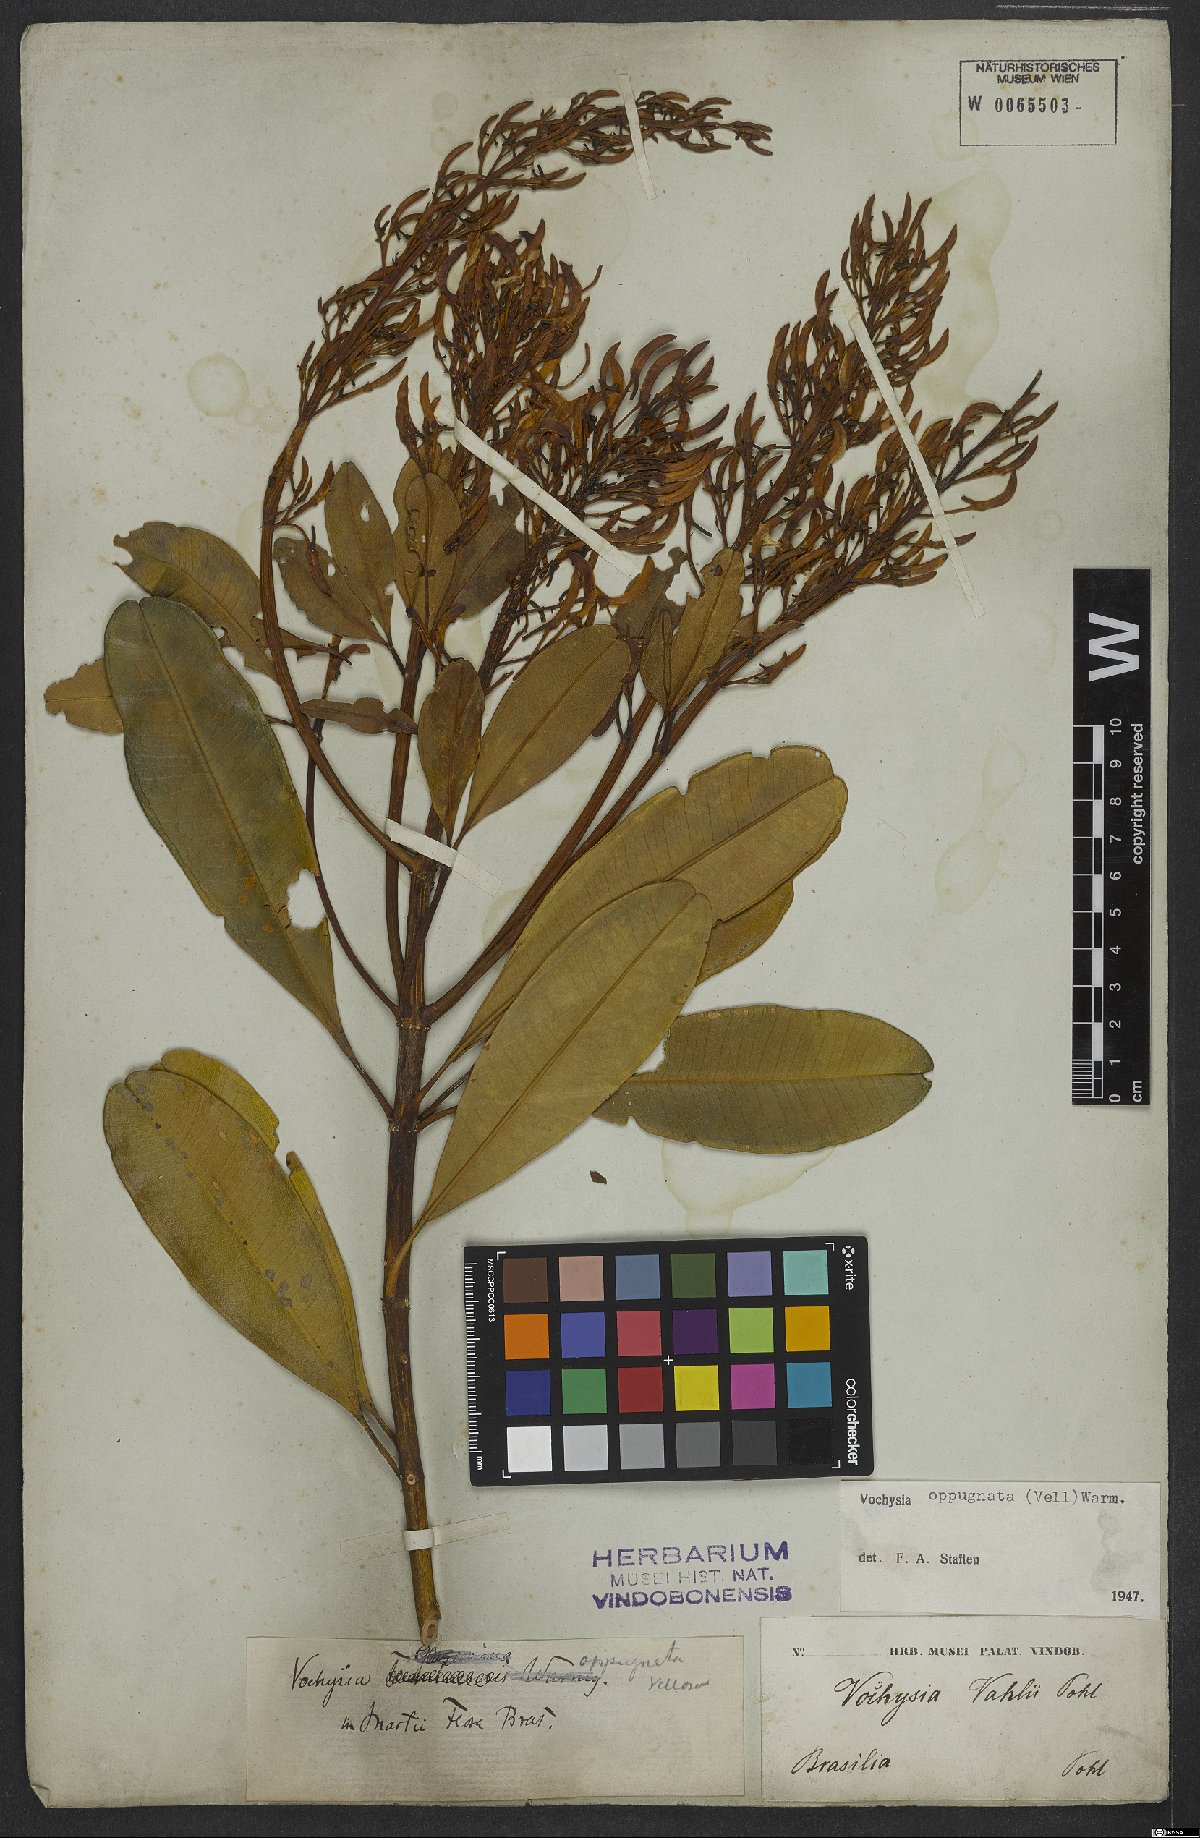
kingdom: Plantae
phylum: Tracheophyta
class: Magnoliopsida
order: Myrtales
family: Vochysiaceae
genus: Vochysia
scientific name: Vochysia oppugnata
